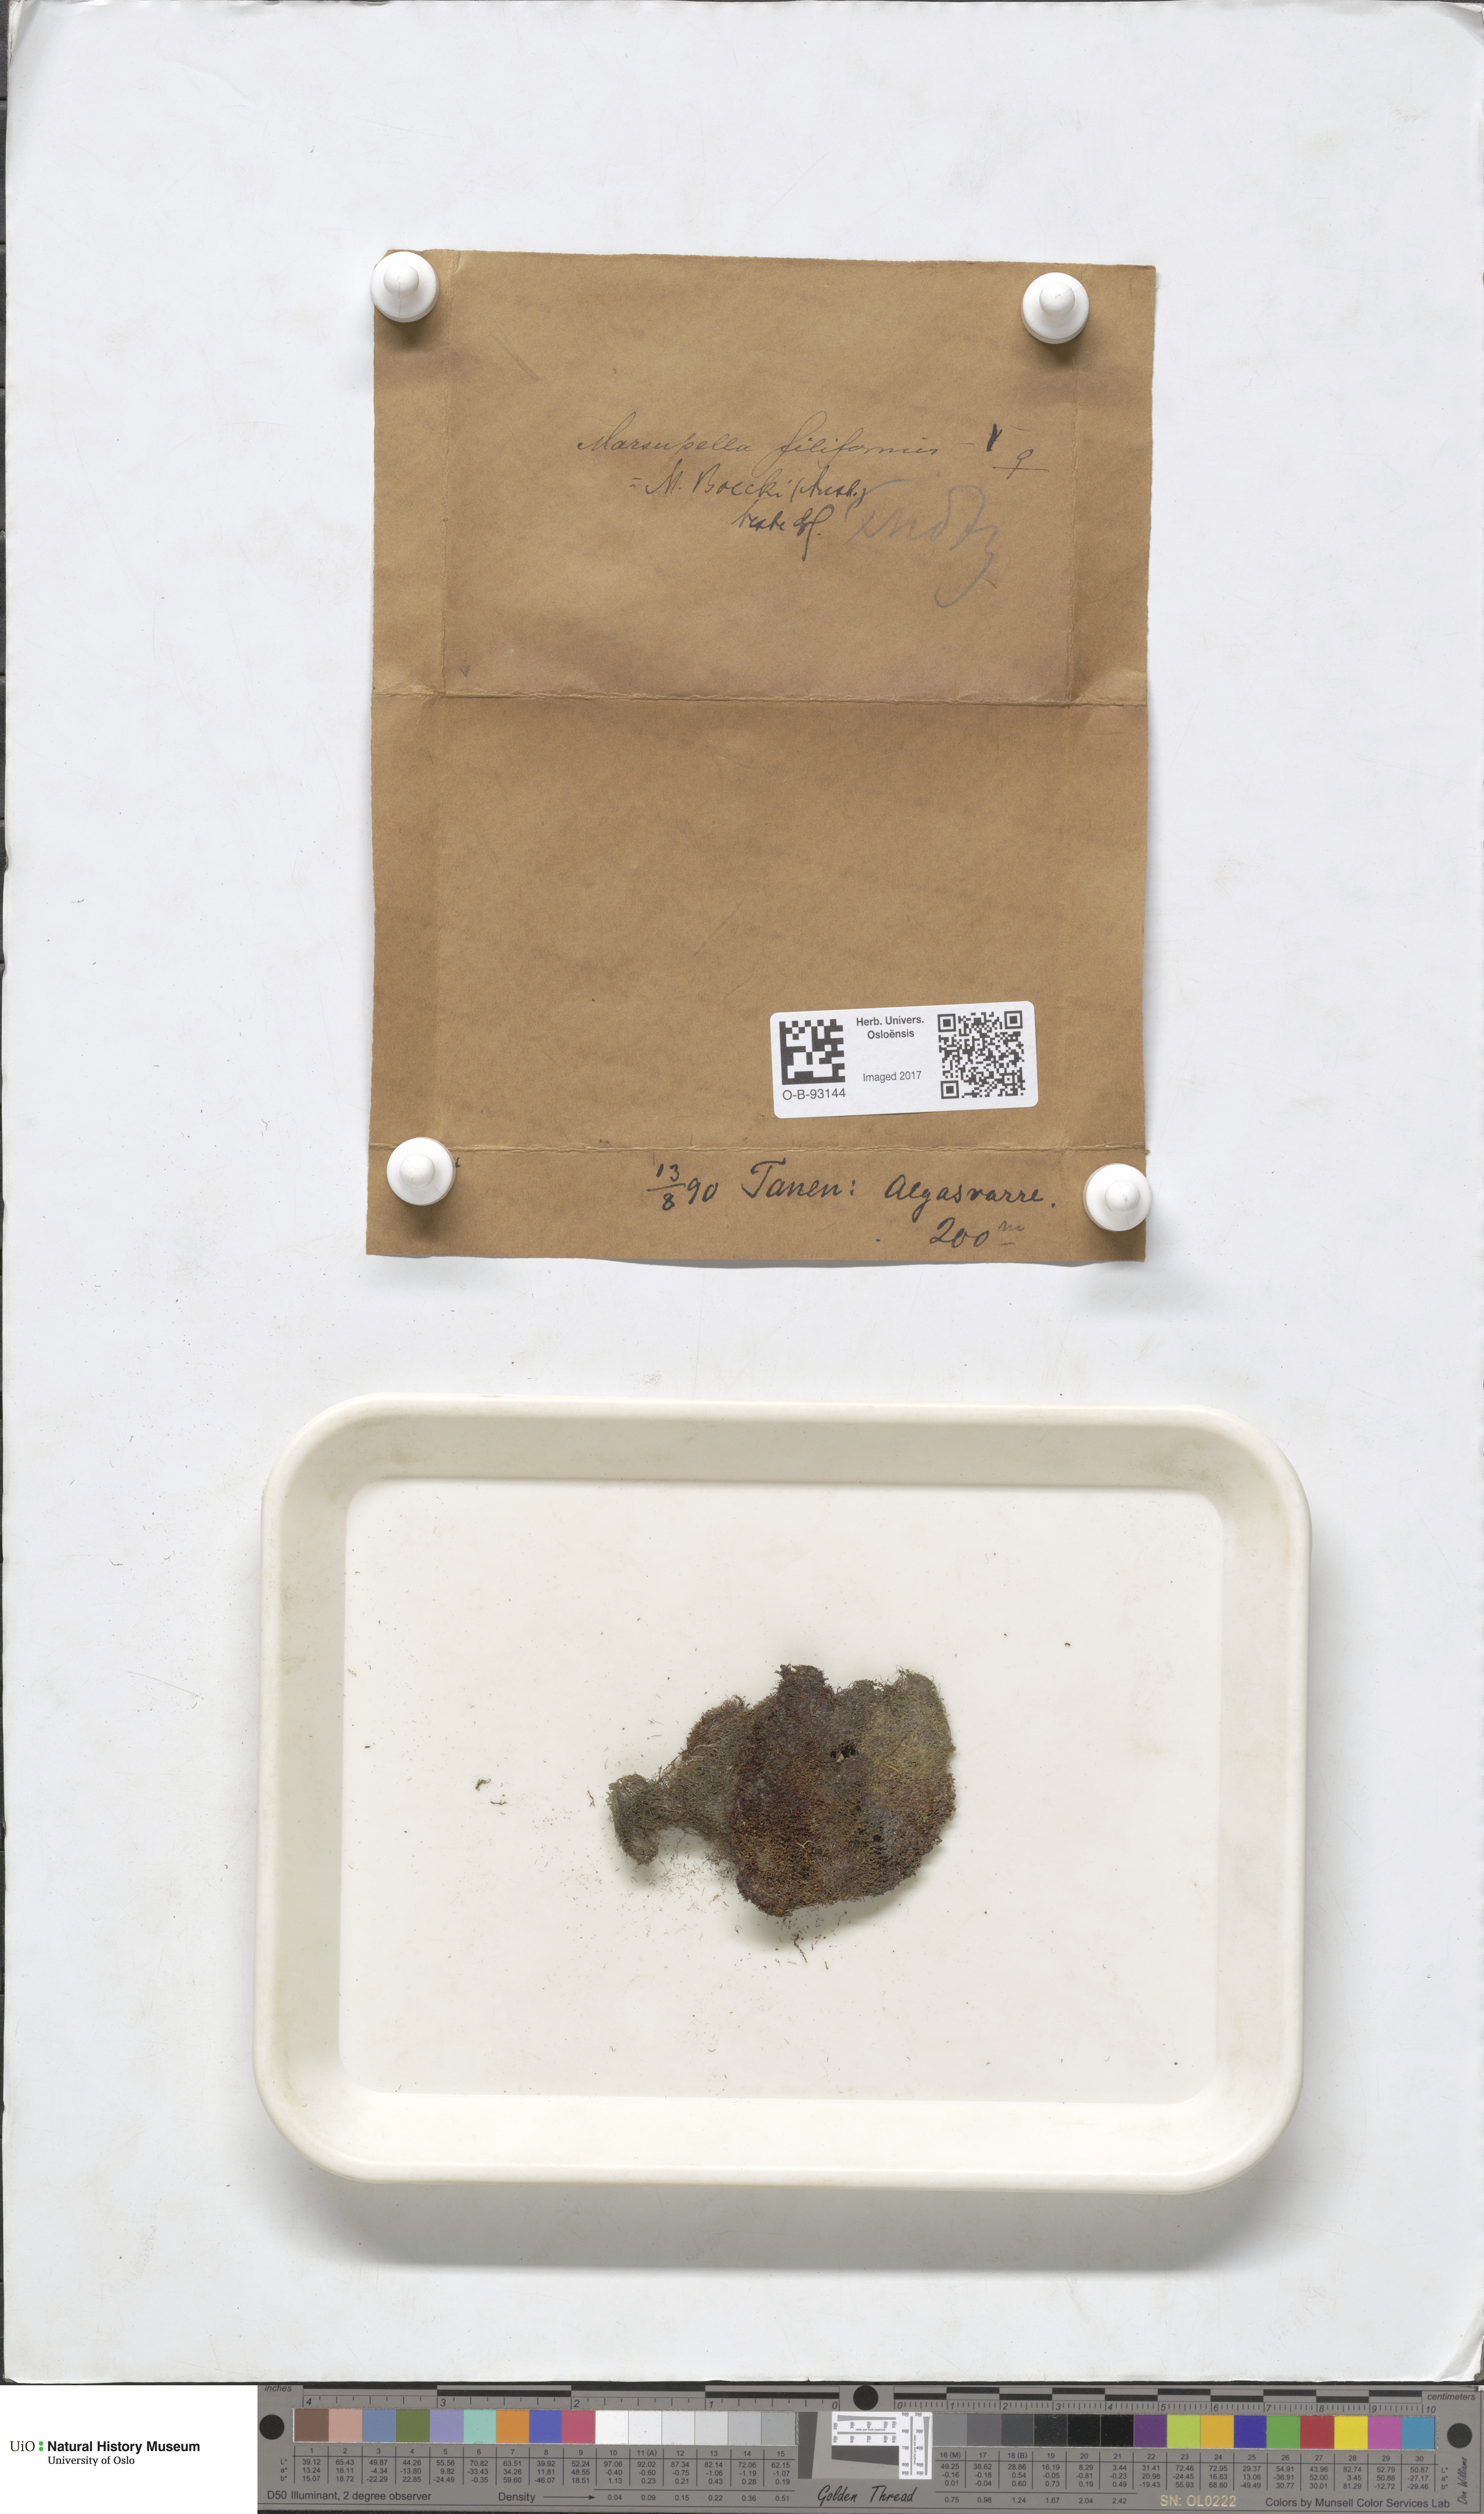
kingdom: Plantae
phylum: Marchantiophyta
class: Jungermanniopsida
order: Jungermanniales
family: Gymnomitriaceae
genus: Marsupella
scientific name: Marsupella boeckii
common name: Boeck s rustwort
